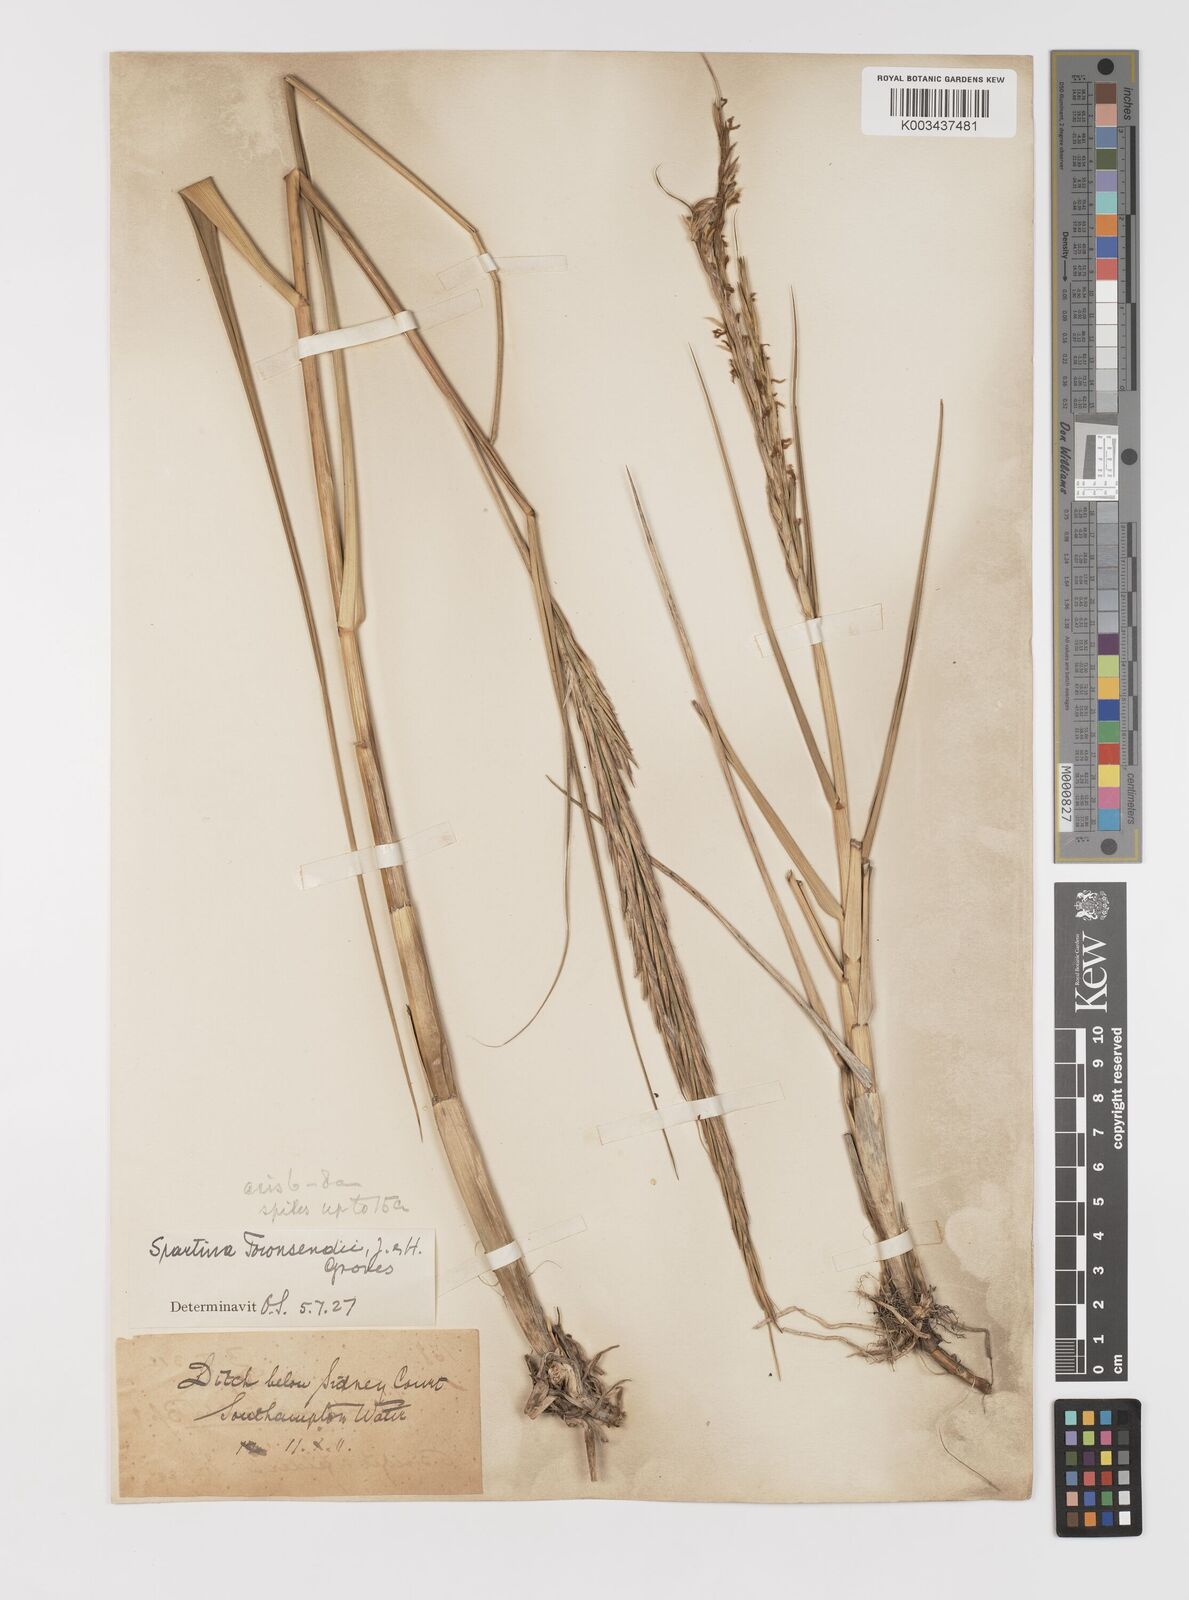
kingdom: Plantae
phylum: Tracheophyta
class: Liliopsida
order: Poales
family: Poaceae
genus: Sporobolus
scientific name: Sporobolus anglicus
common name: English cordgrass
